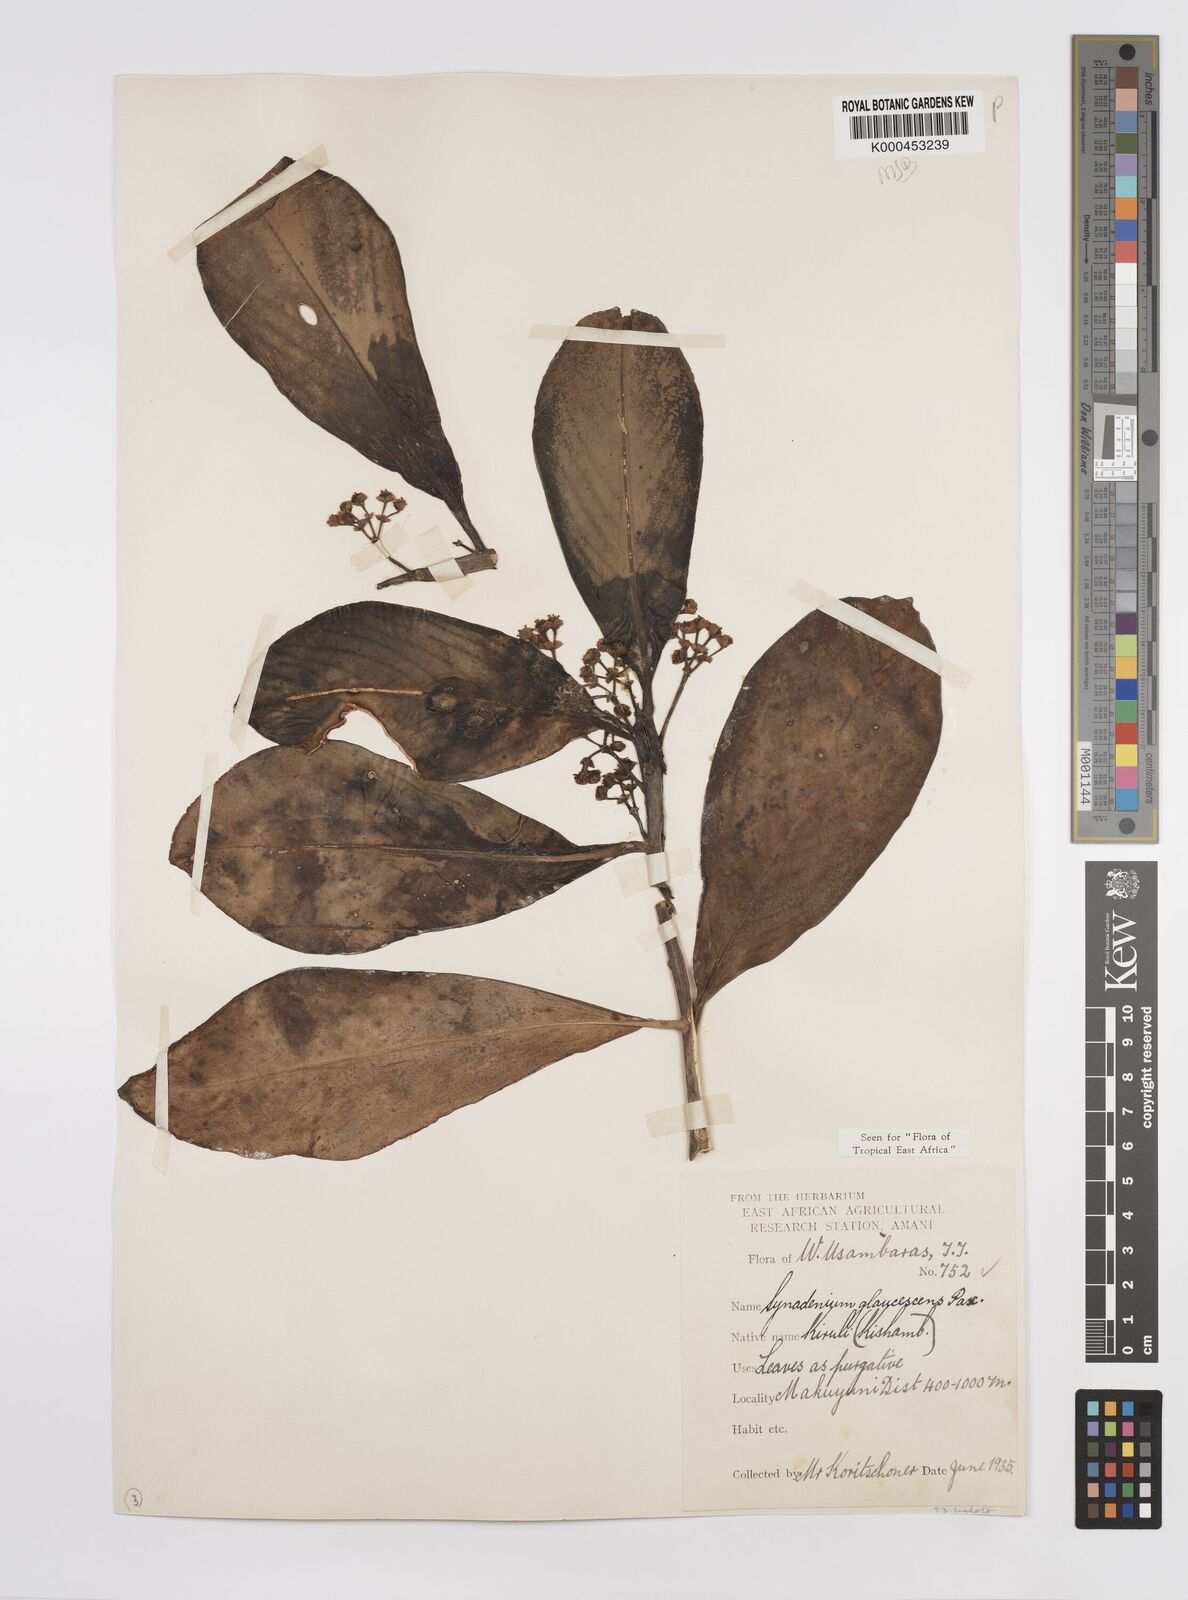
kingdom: Plantae
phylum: Tracheophyta
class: Magnoliopsida
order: Malpighiales
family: Euphorbiaceae
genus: Euphorbia
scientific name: Euphorbia neoglaucescens
